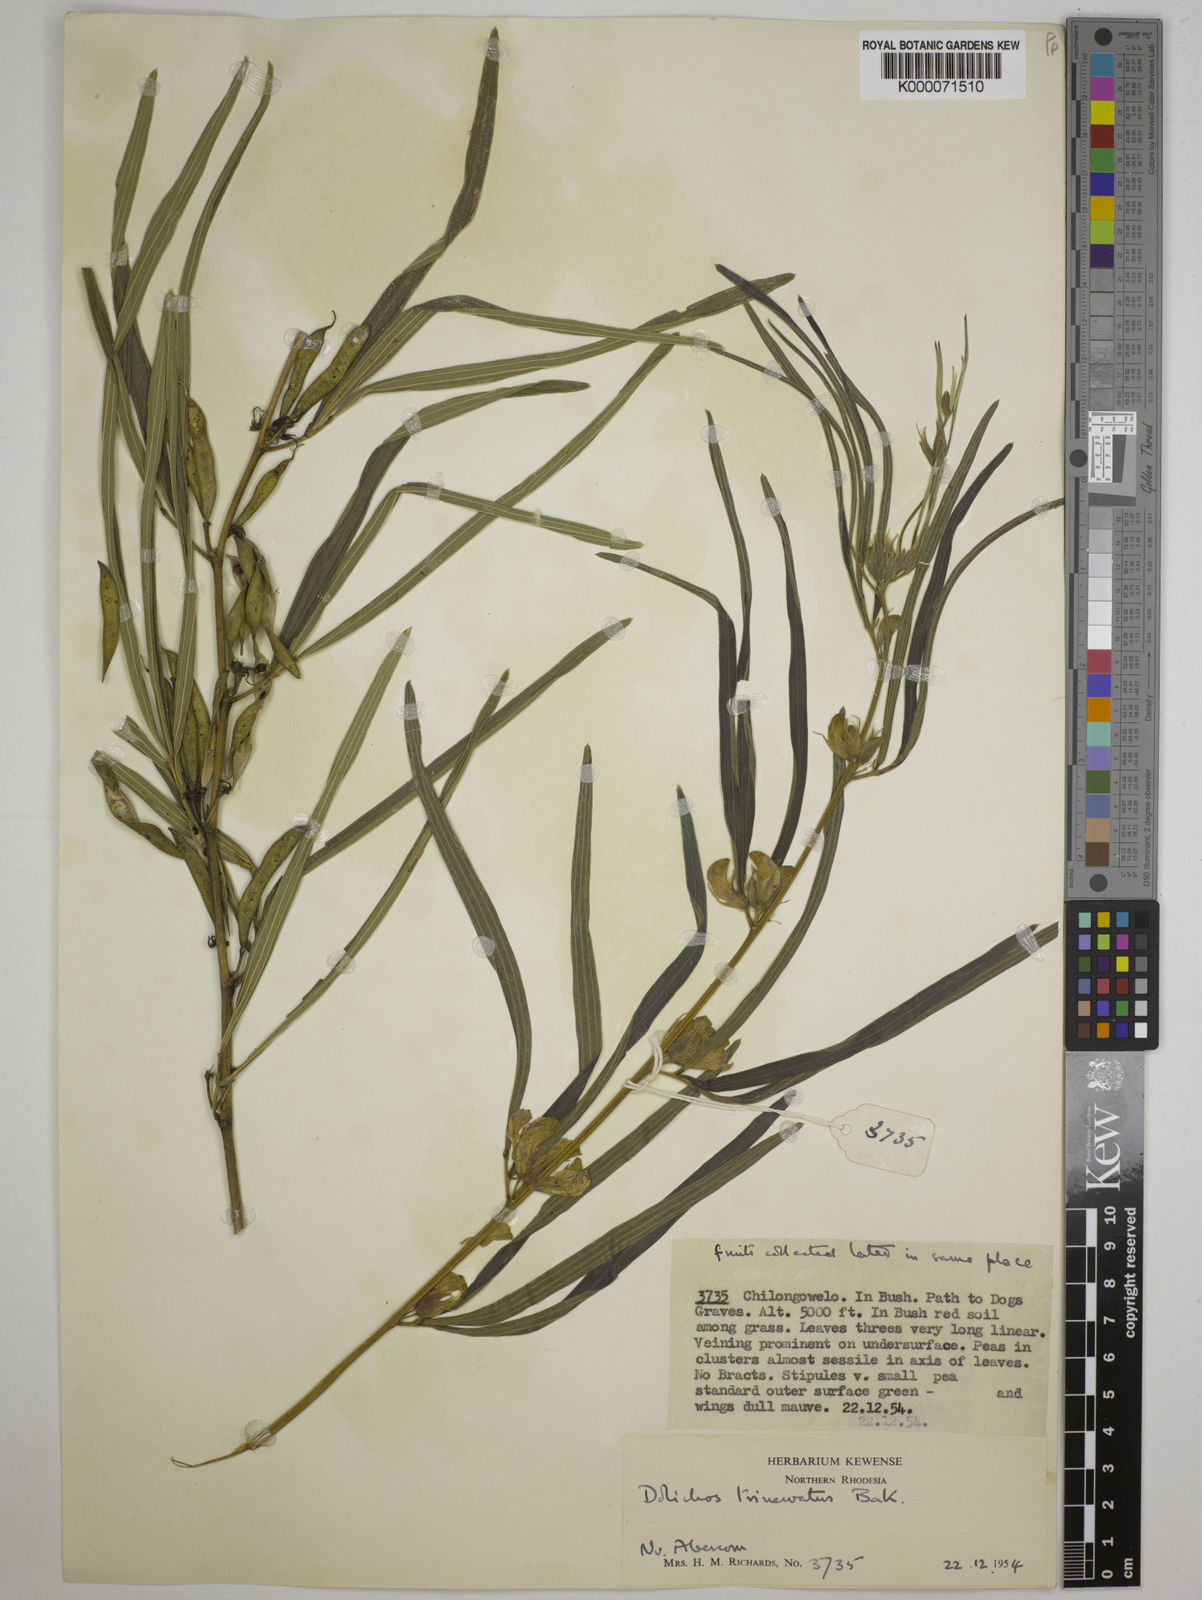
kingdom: Plantae
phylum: Tracheophyta
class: Magnoliopsida
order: Fabales
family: Fabaceae
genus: Dolichos
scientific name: Dolichos trinervatus
